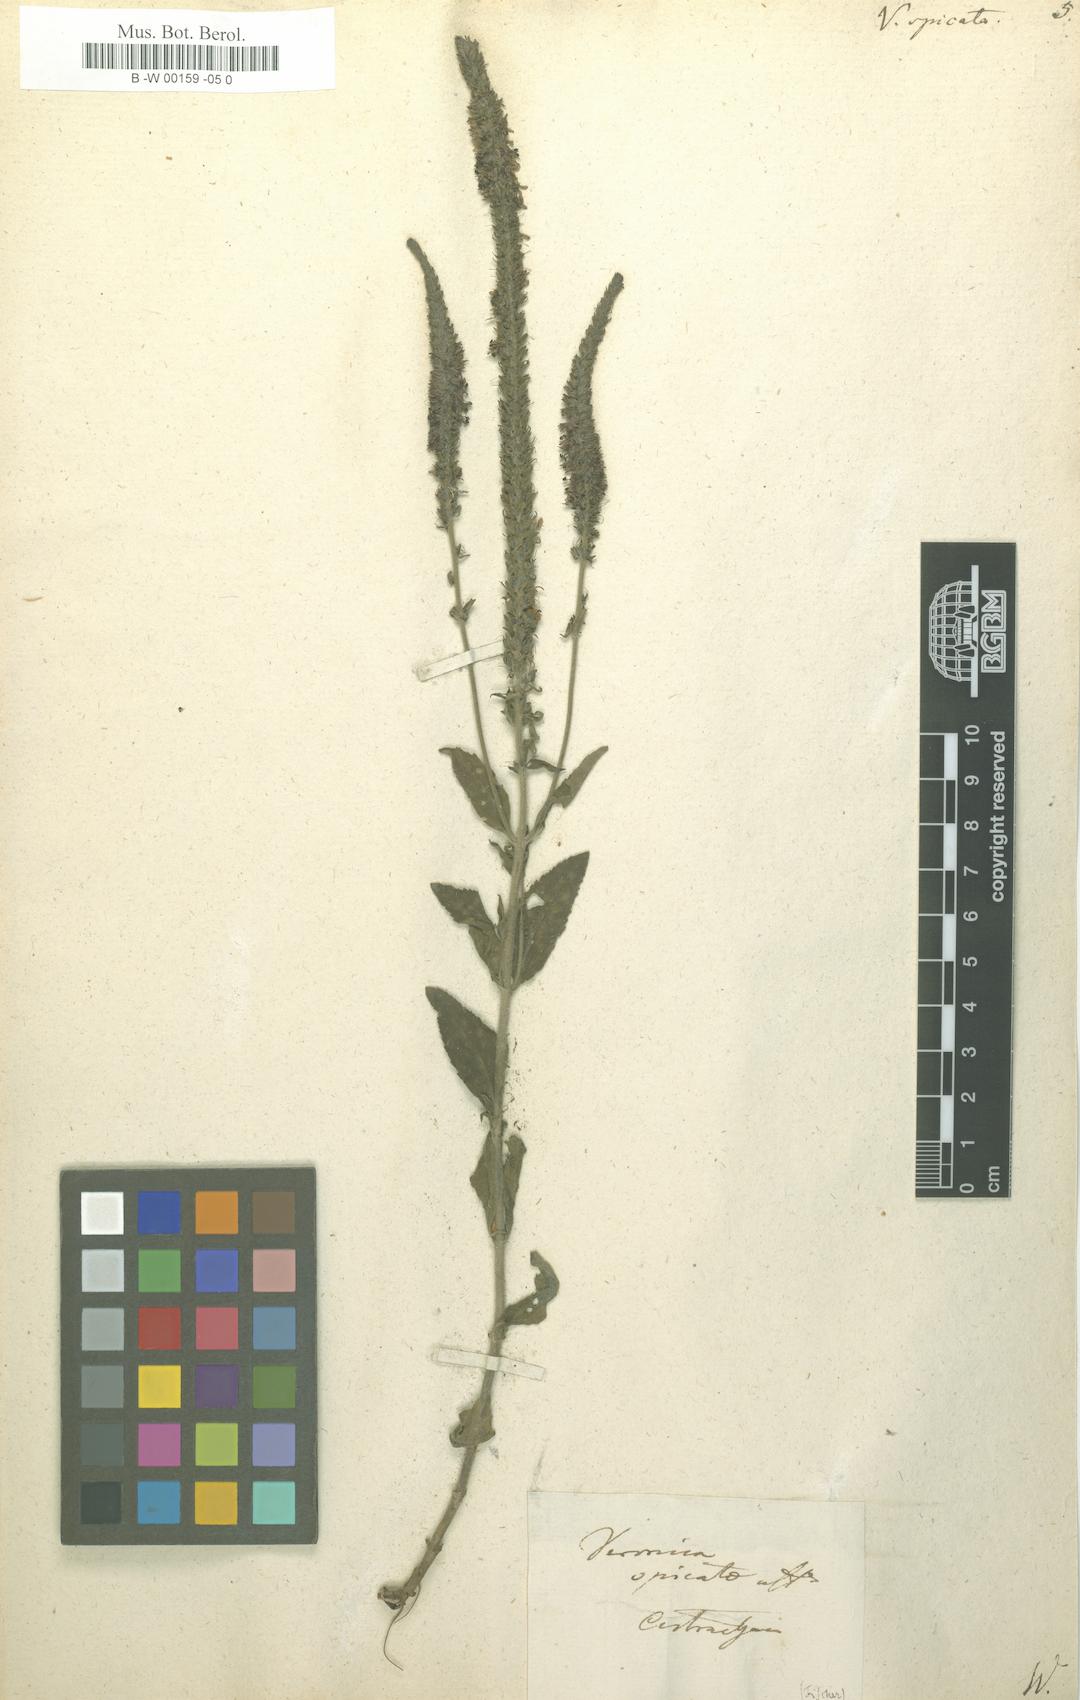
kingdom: Plantae
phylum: Tracheophyta
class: Magnoliopsida
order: Lamiales
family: Plantaginaceae
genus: Veronica
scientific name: Veronica spicata
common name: Spiked speedwell
